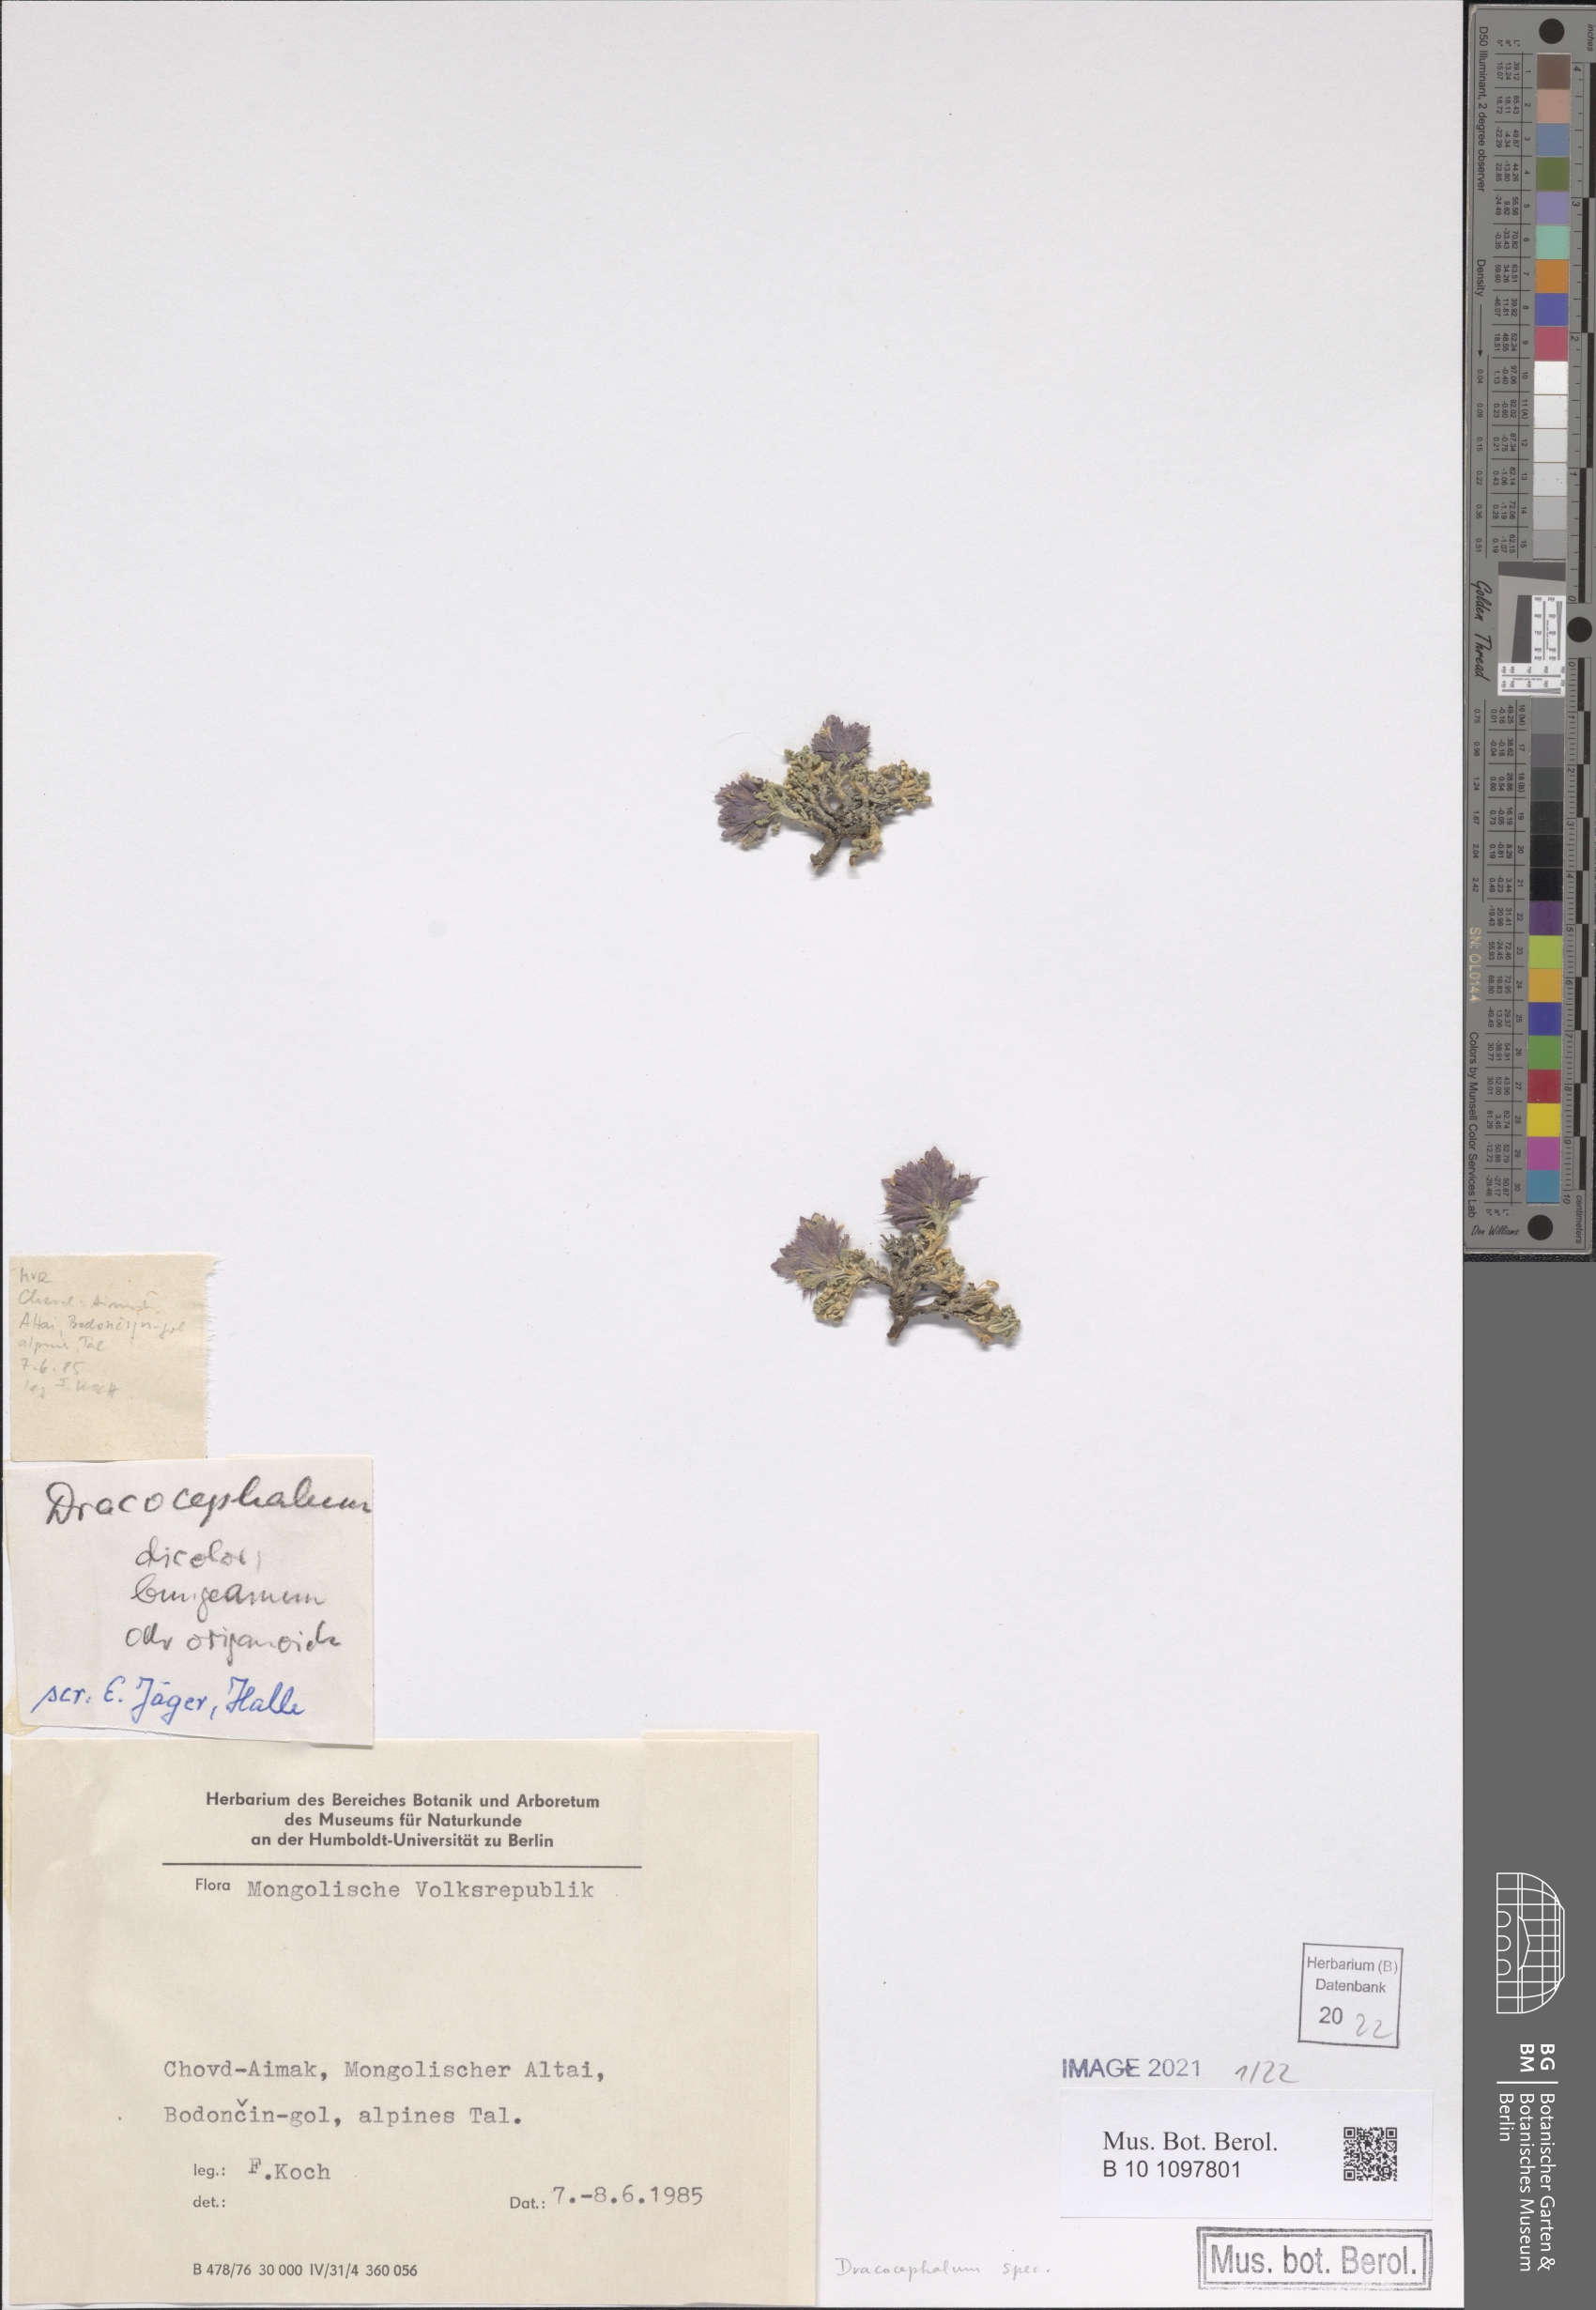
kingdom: Plantae
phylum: Tracheophyta
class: Magnoliopsida
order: Lamiales
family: Lamiaceae
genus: Dracocephalum
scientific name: Dracocephalum
